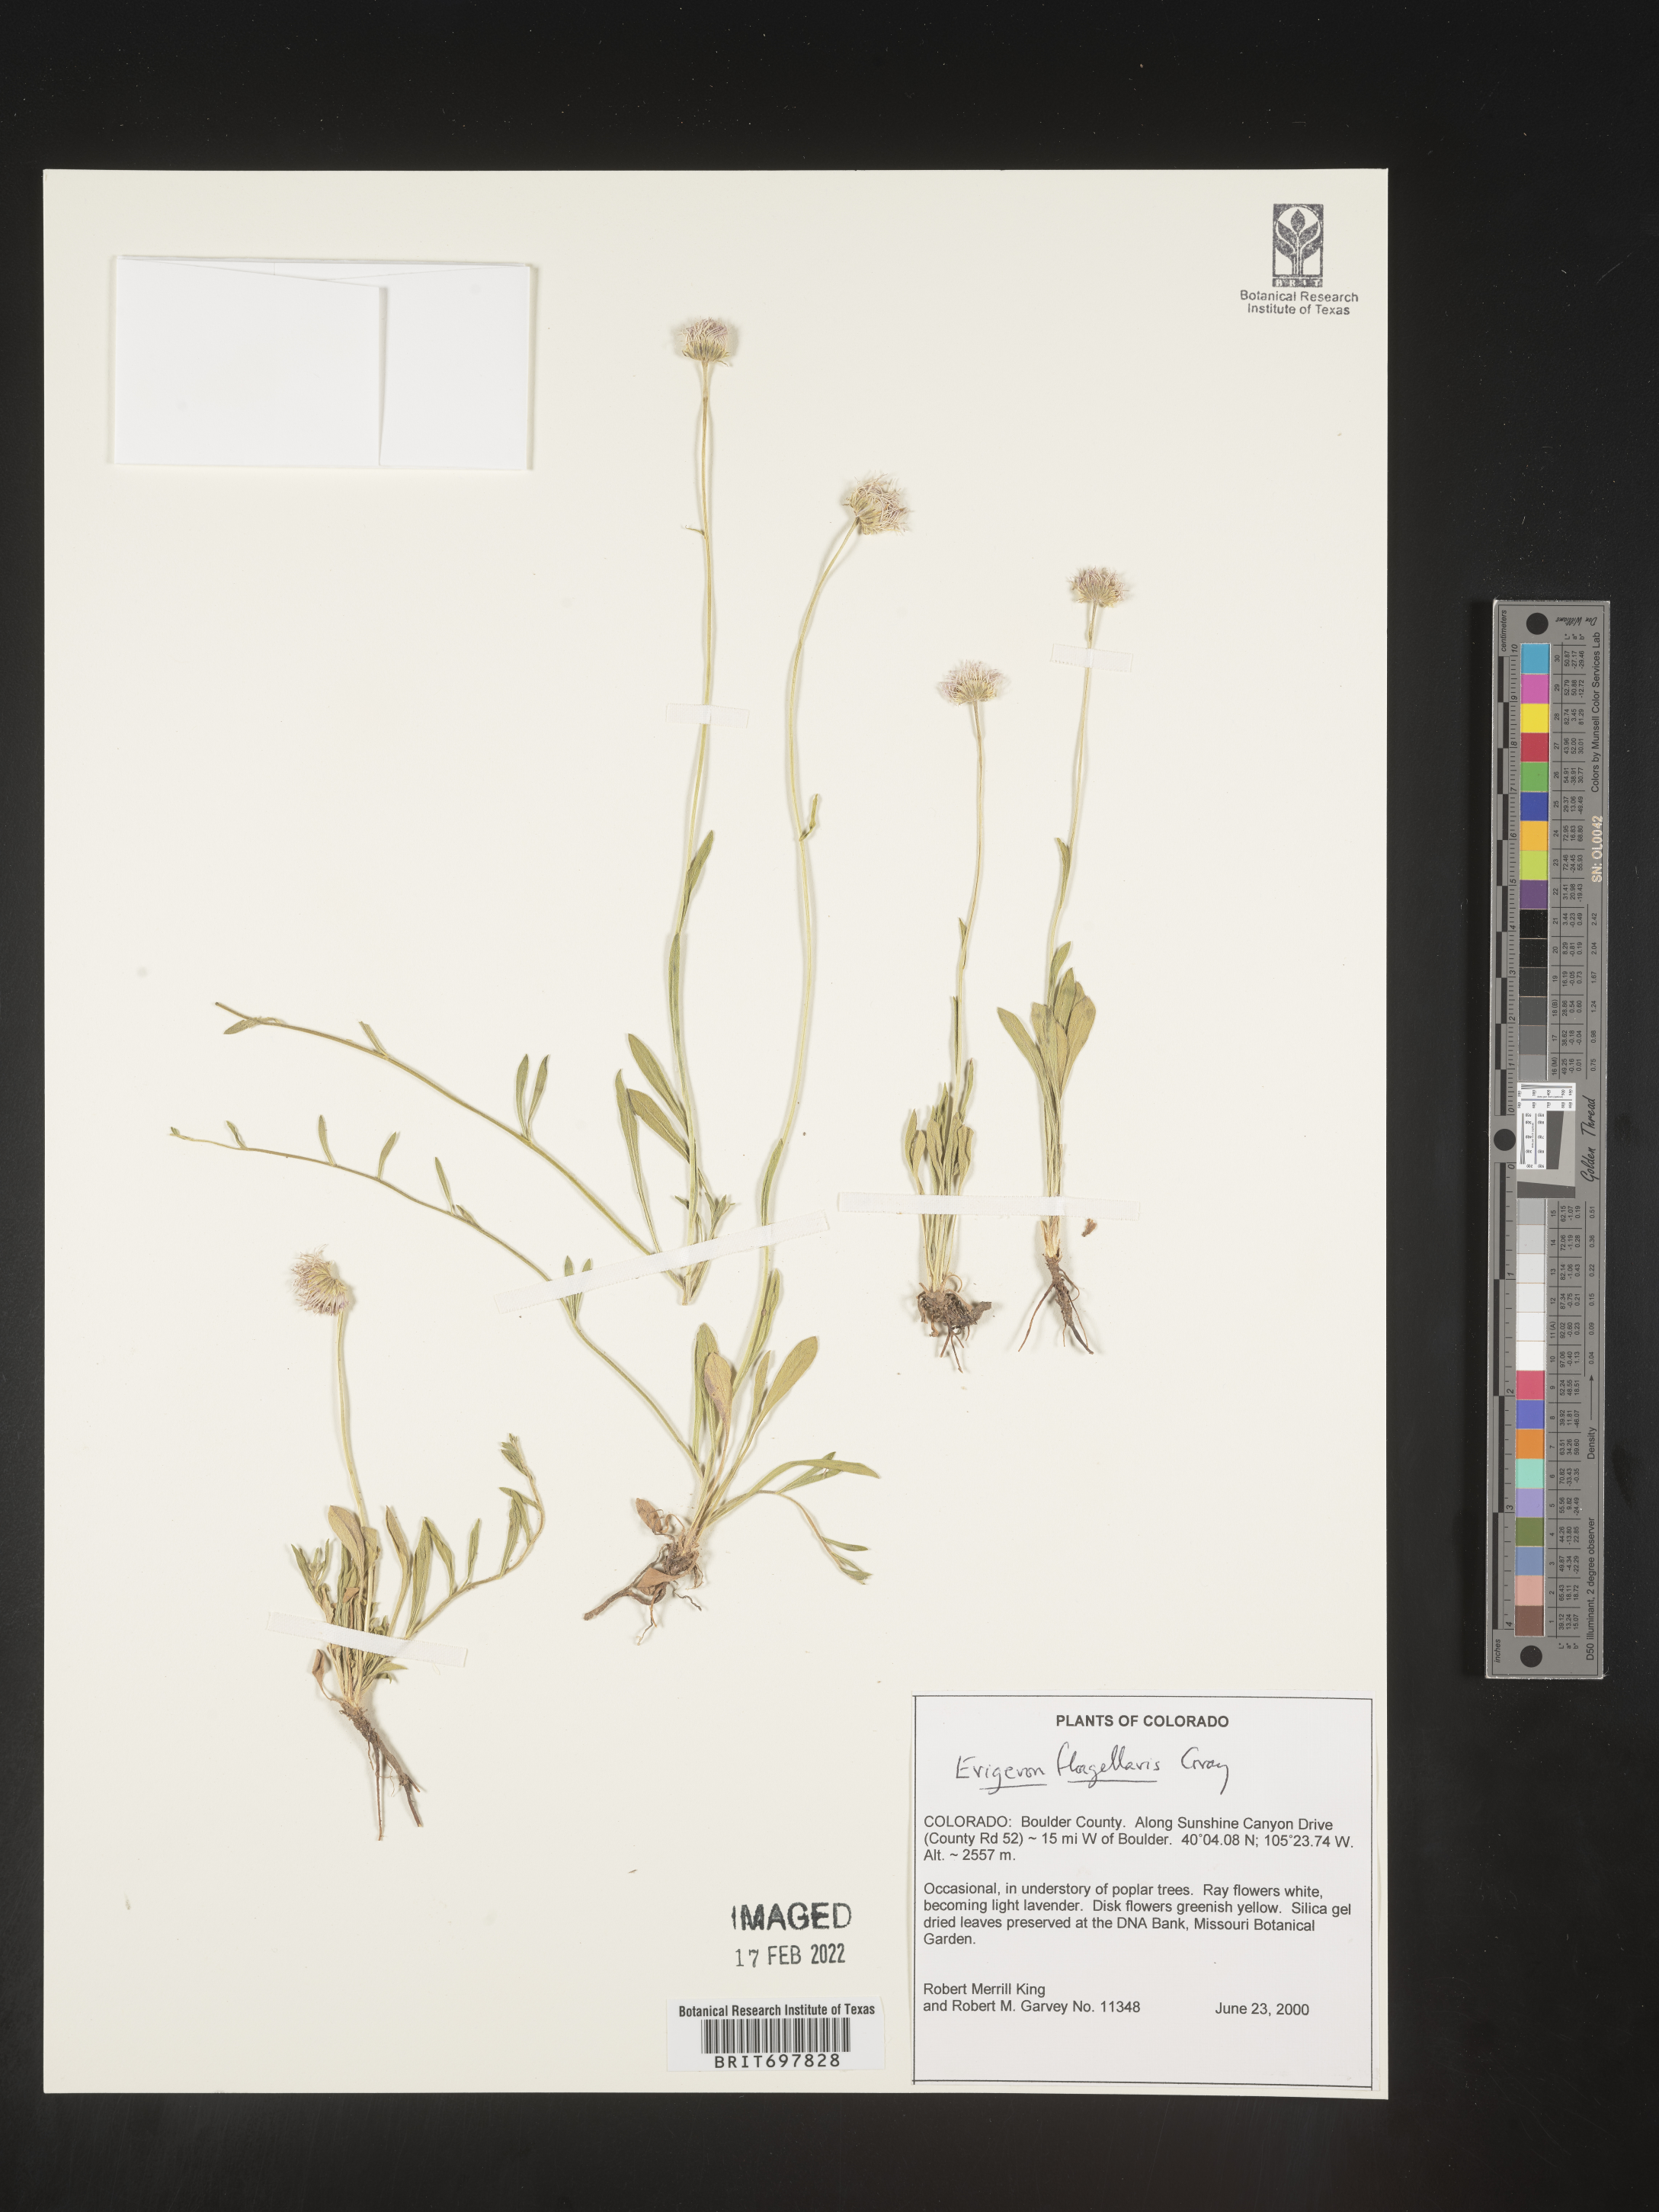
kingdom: Plantae
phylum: Tracheophyta
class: Magnoliopsida
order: Asterales
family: Asteraceae
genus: Erigeron
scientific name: Erigeron flagellaris
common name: Running fleabane
